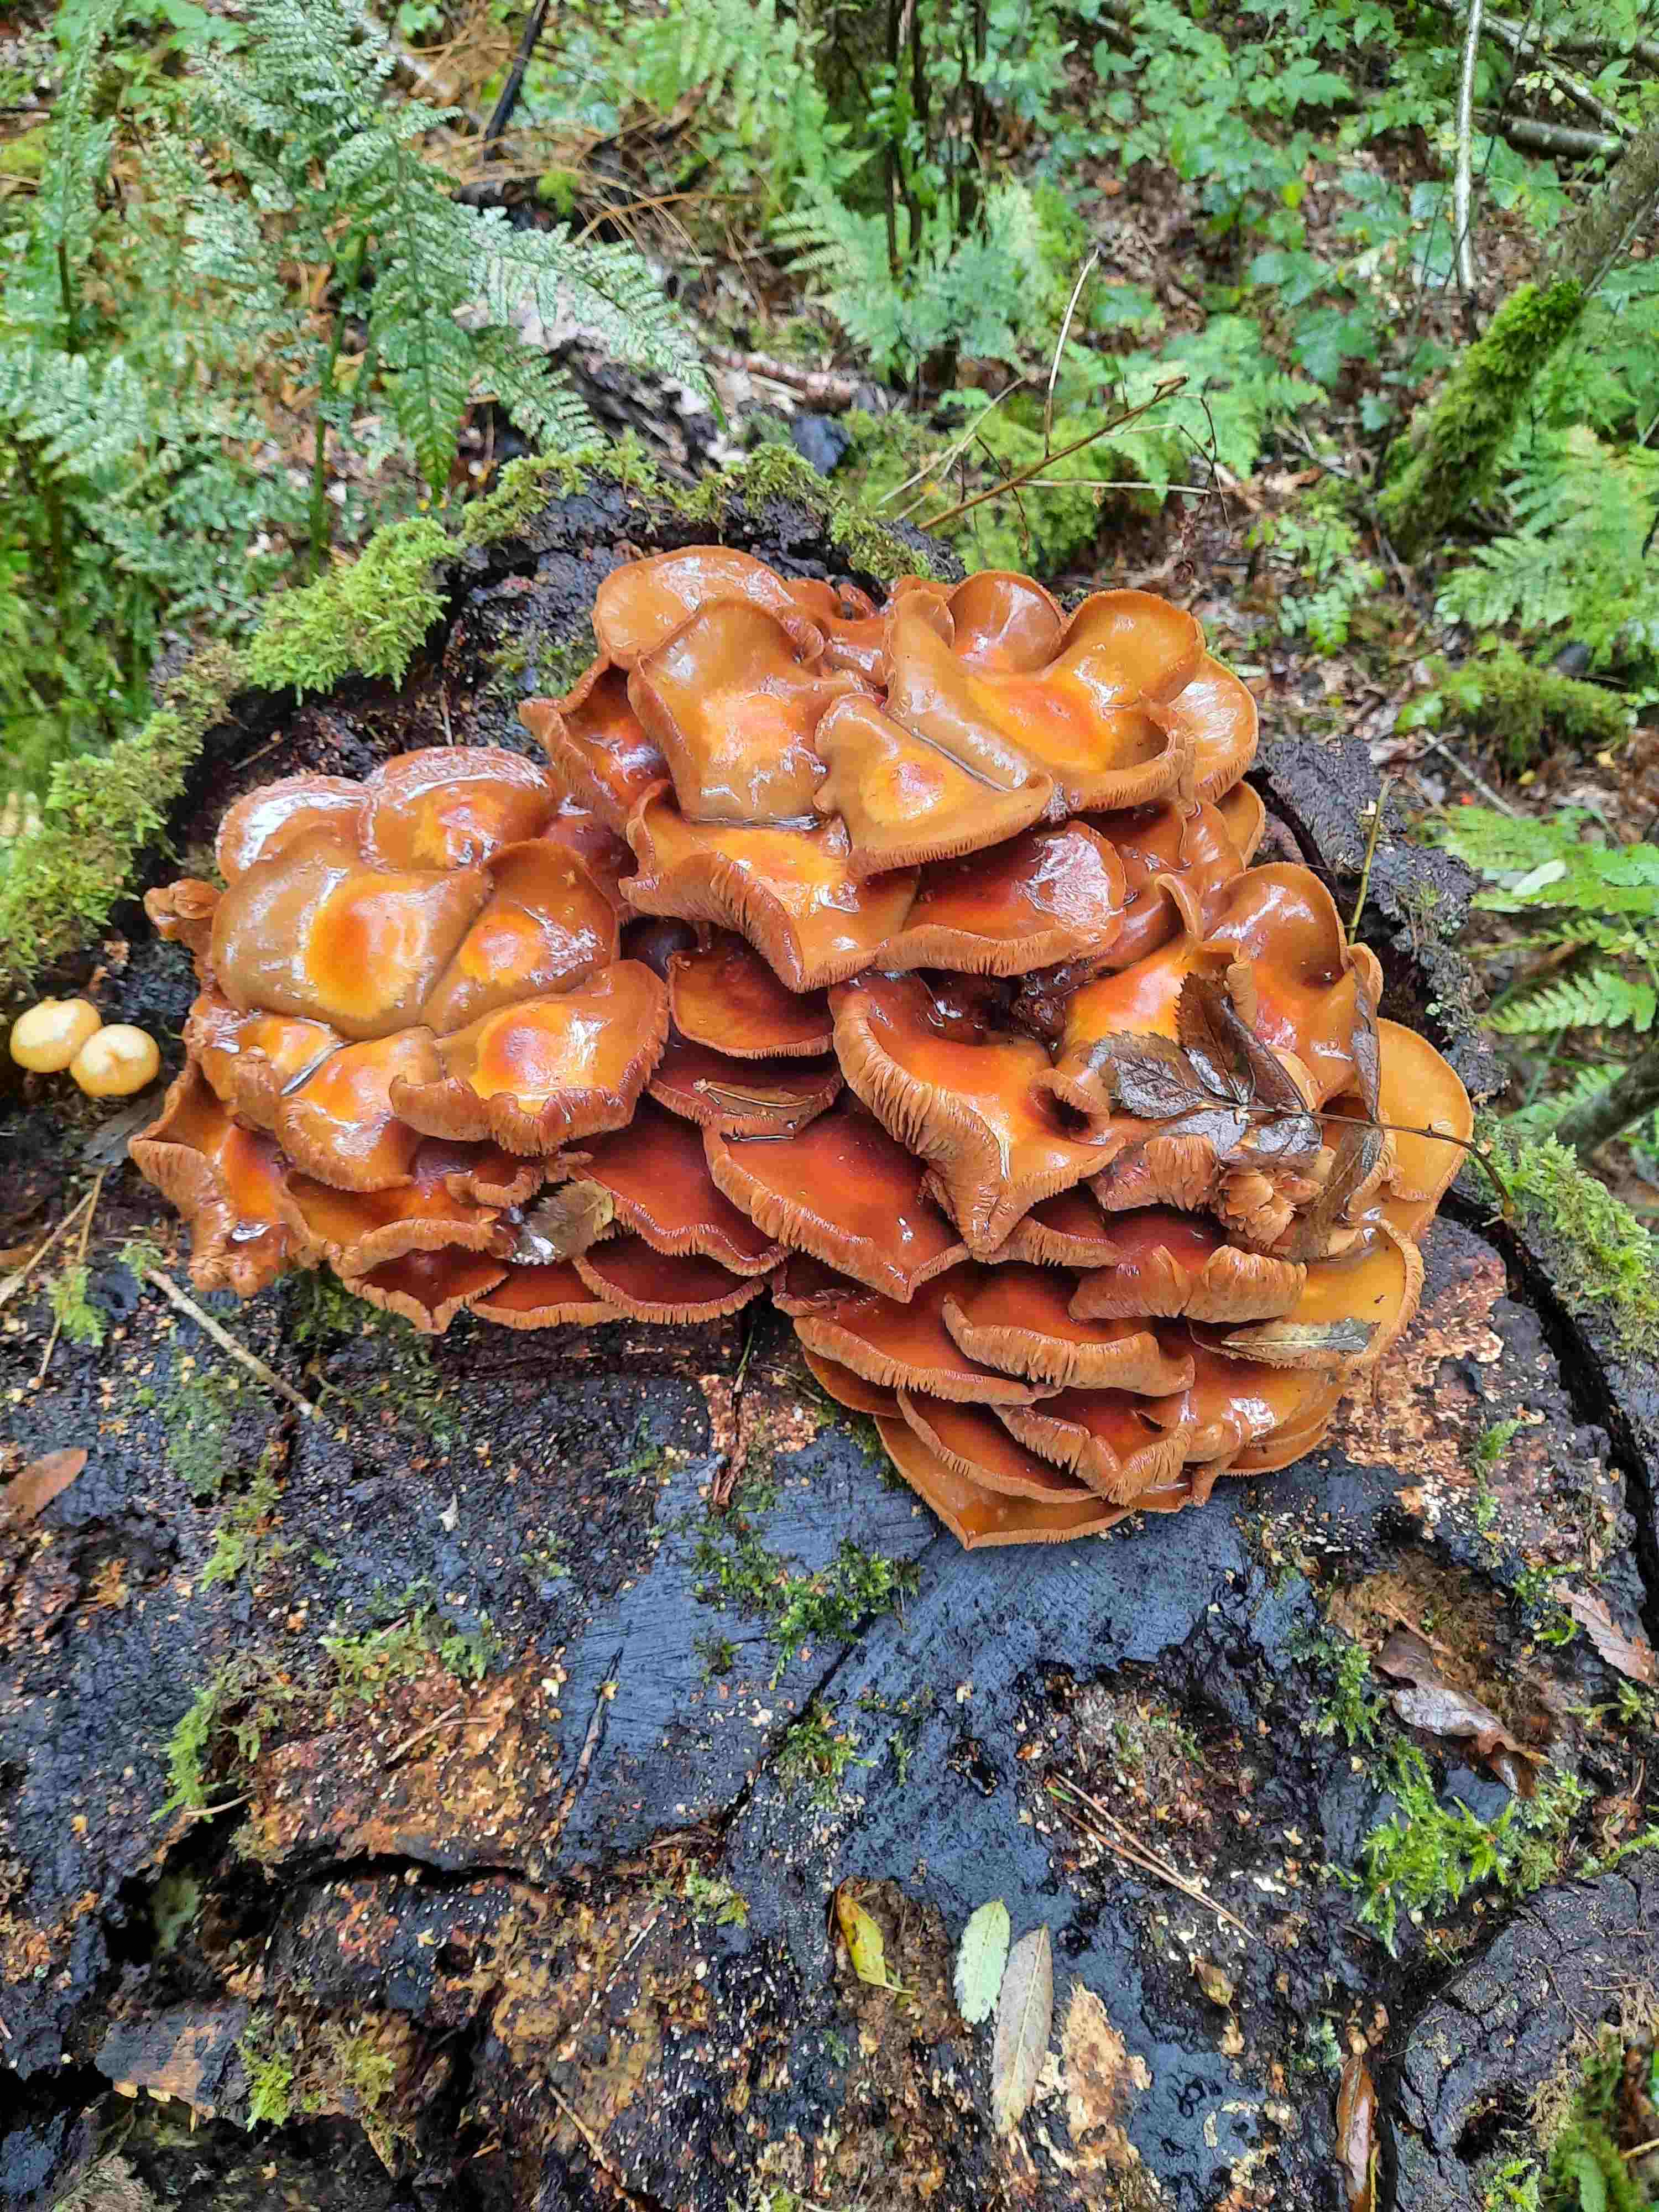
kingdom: Fungi
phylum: Basidiomycota
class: Agaricomycetes
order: Agaricales
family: Strophariaceae
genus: Kuehneromyces
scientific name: Kuehneromyces mutabilis
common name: foranderlig skælhat
